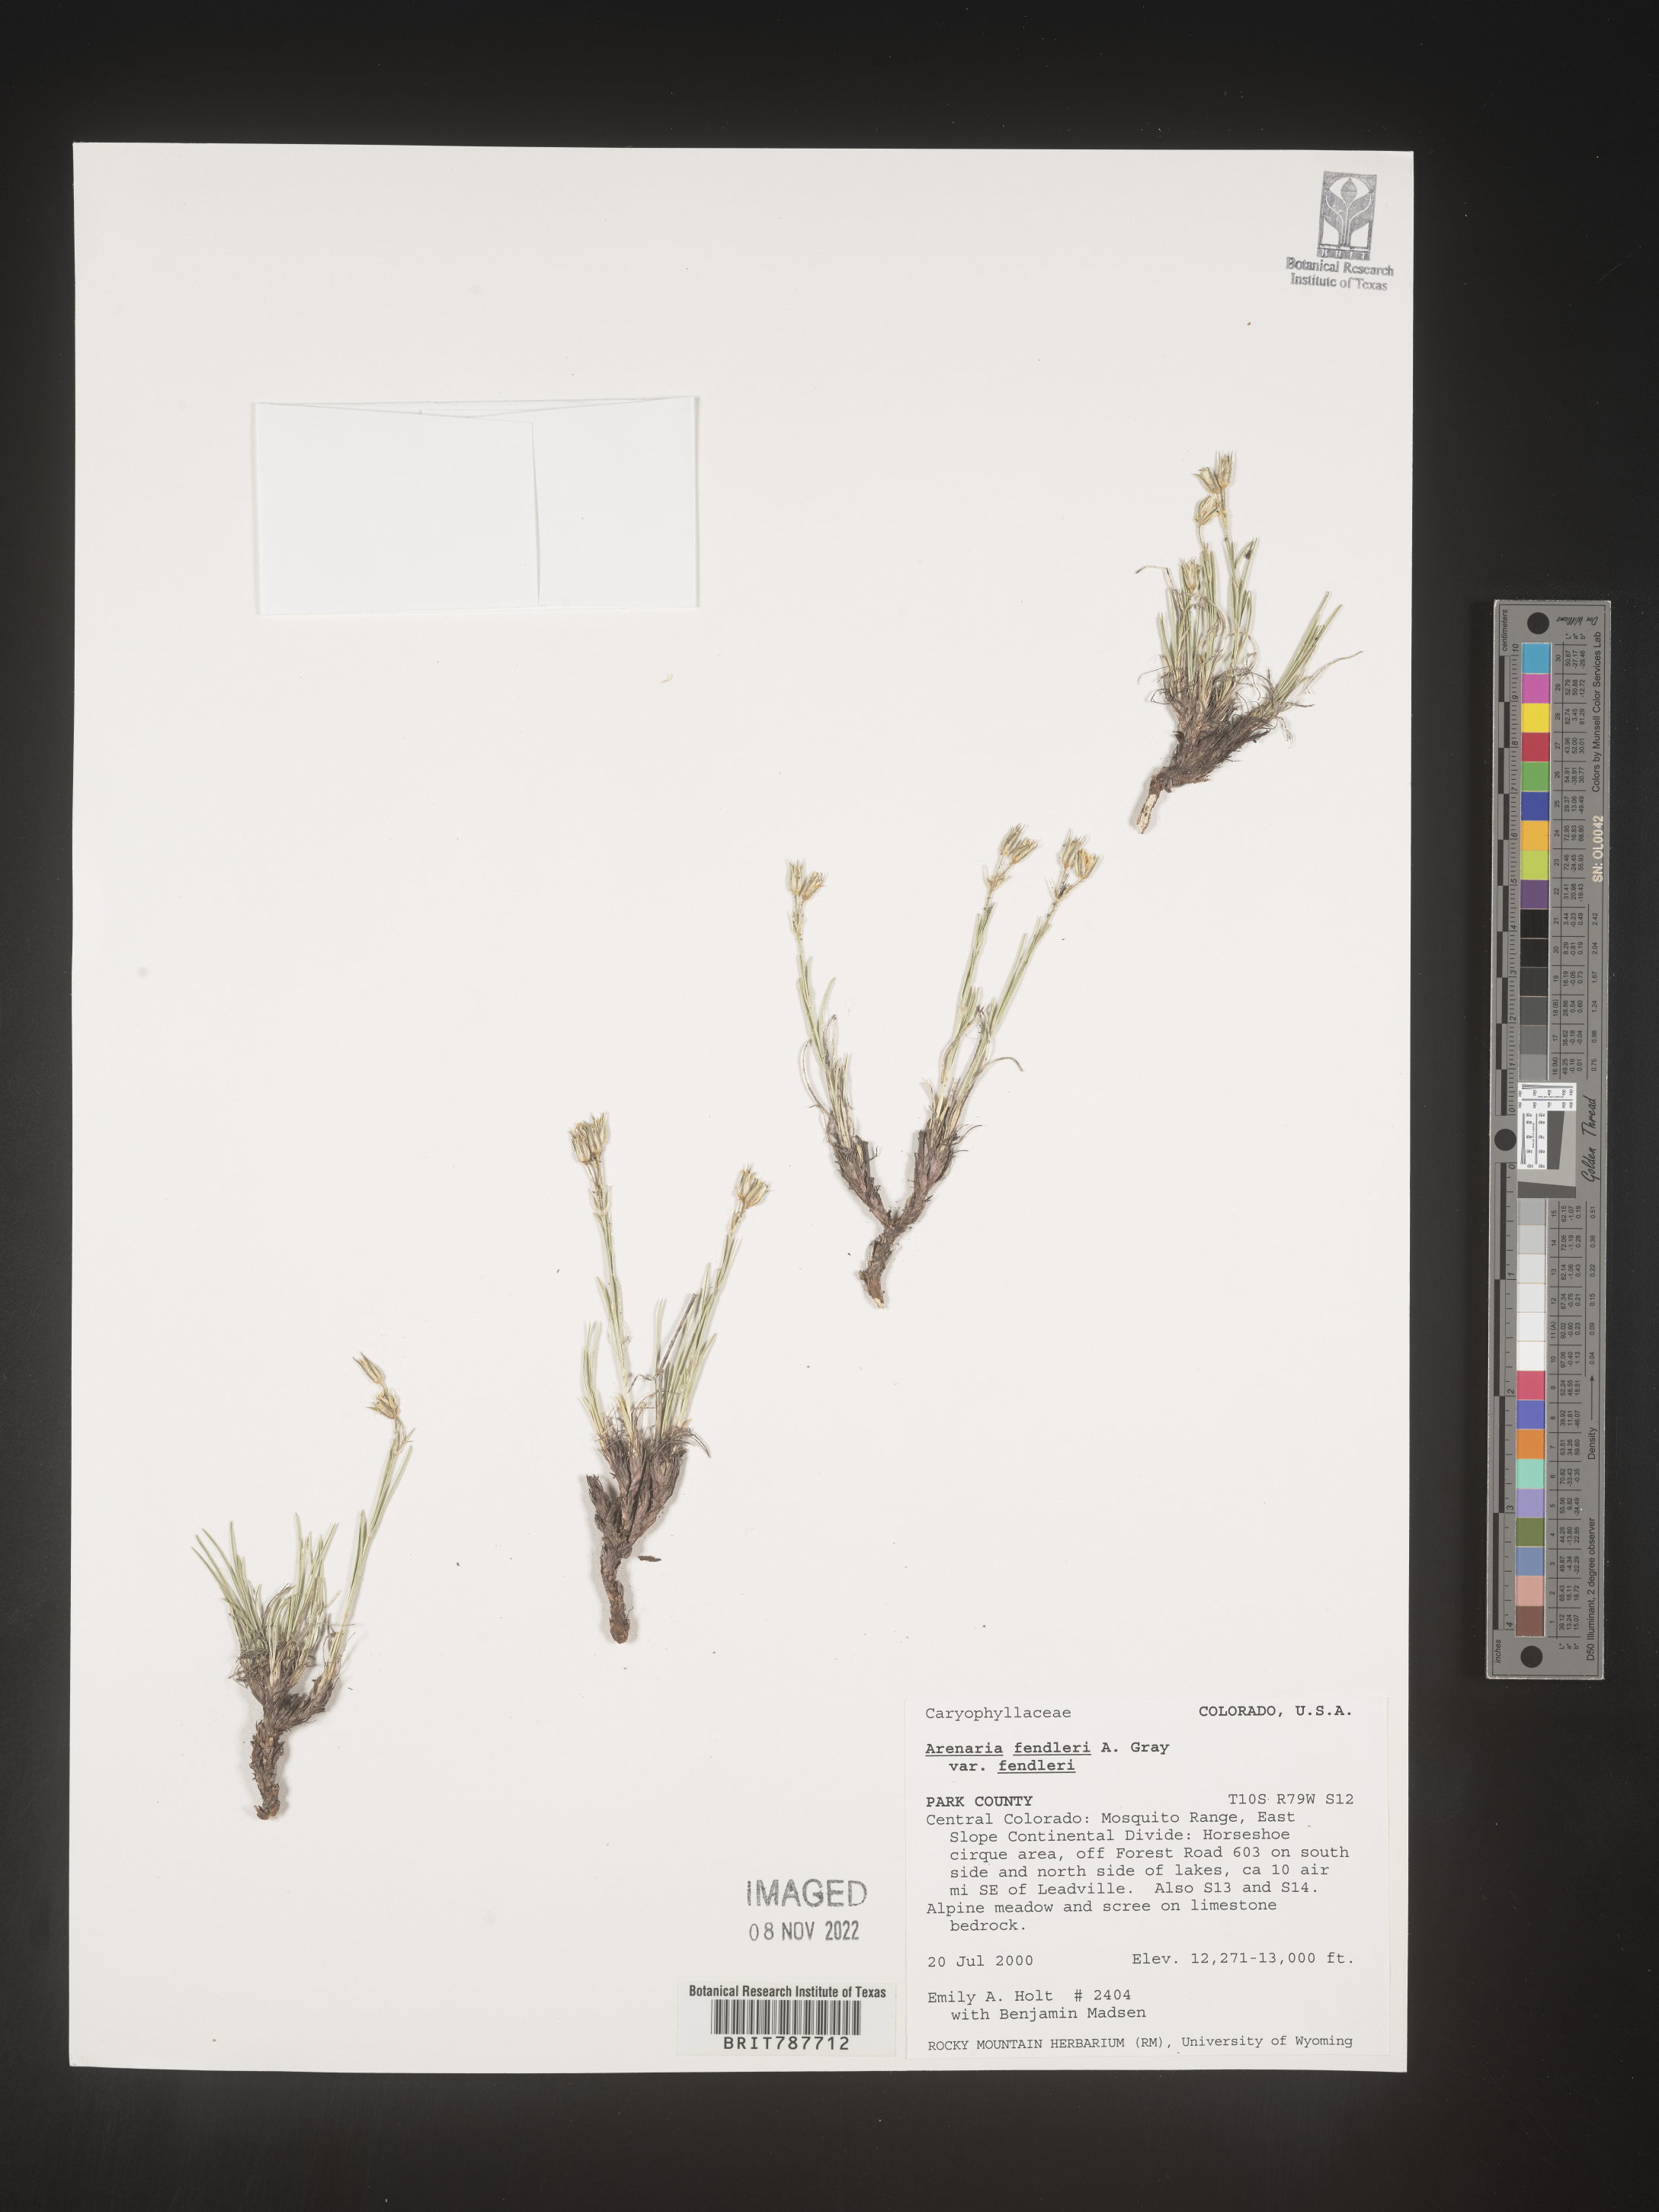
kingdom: Plantae
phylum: Tracheophyta
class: Magnoliopsida
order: Caryophyllales
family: Caryophyllaceae
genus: Arenaria
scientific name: Arenaria
